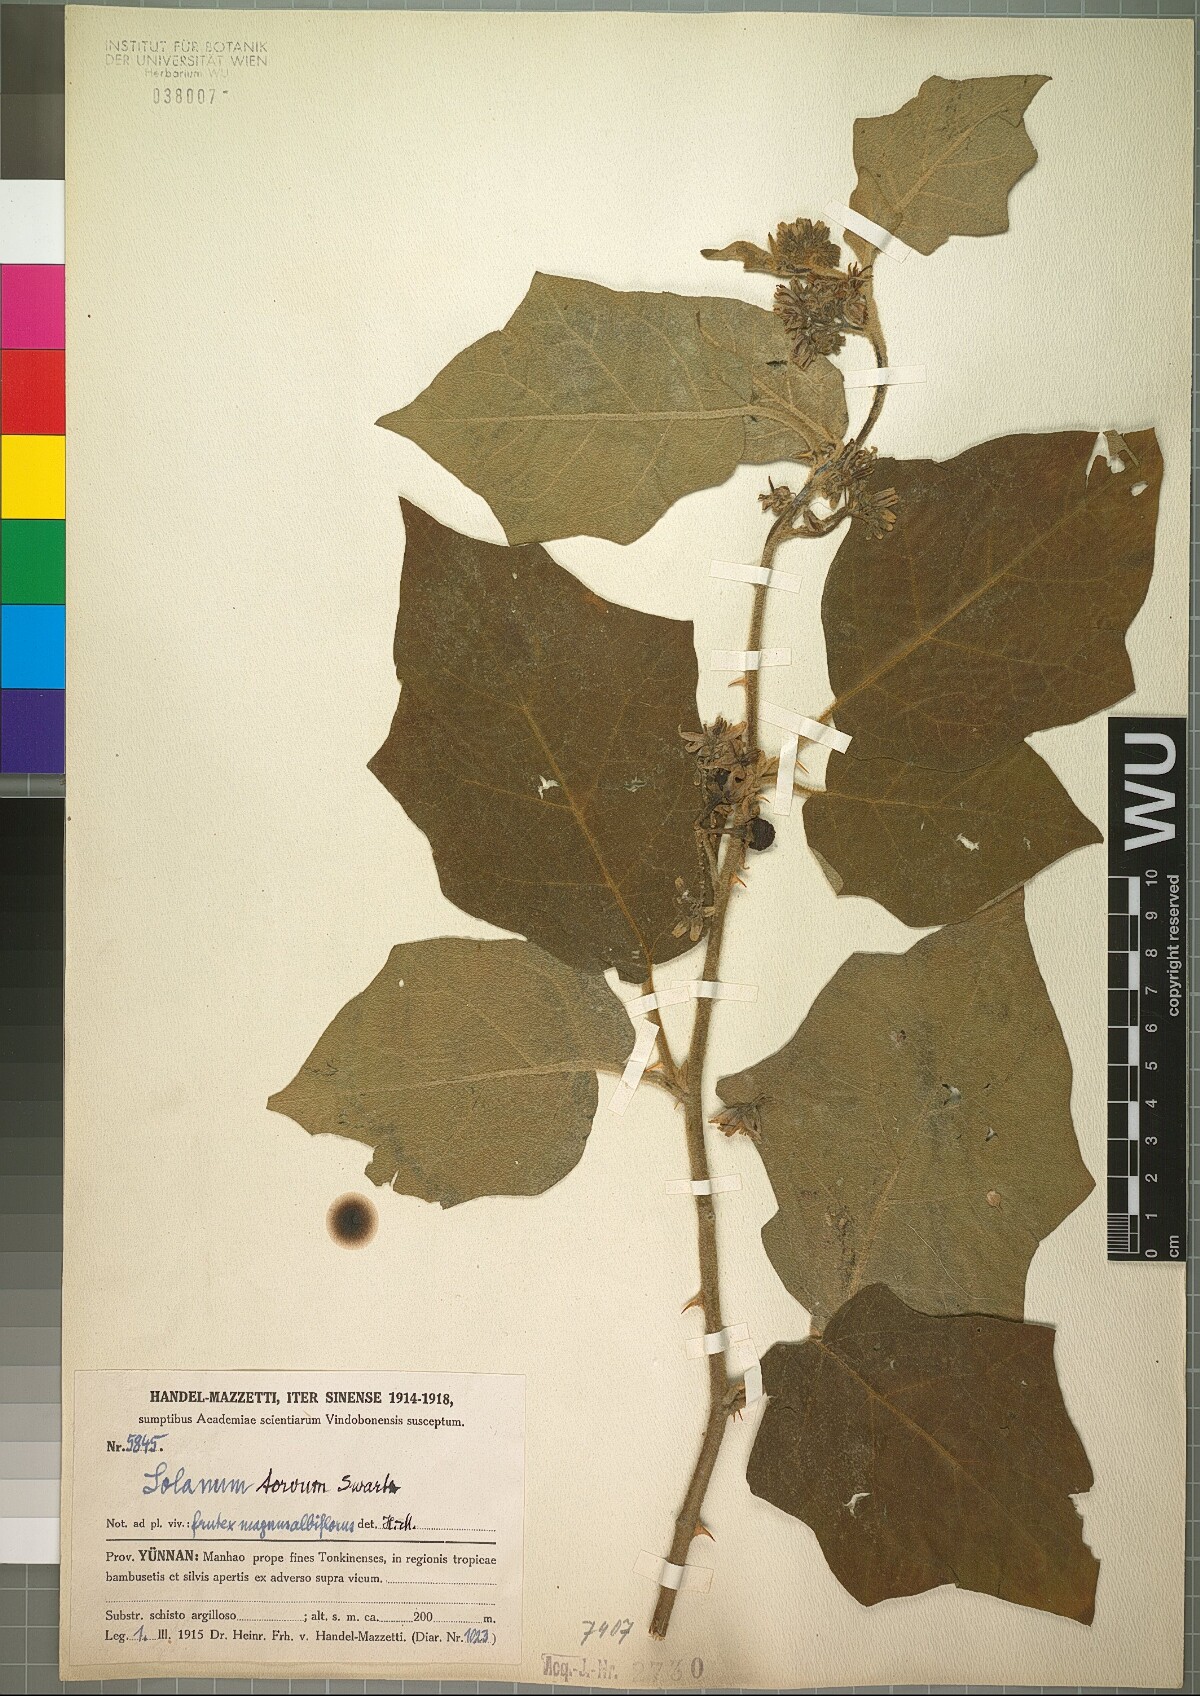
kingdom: Plantae
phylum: Tracheophyta
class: Magnoliopsida
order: Solanales
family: Solanaceae
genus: Solanum
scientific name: Solanum torvum
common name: Turkey berry
